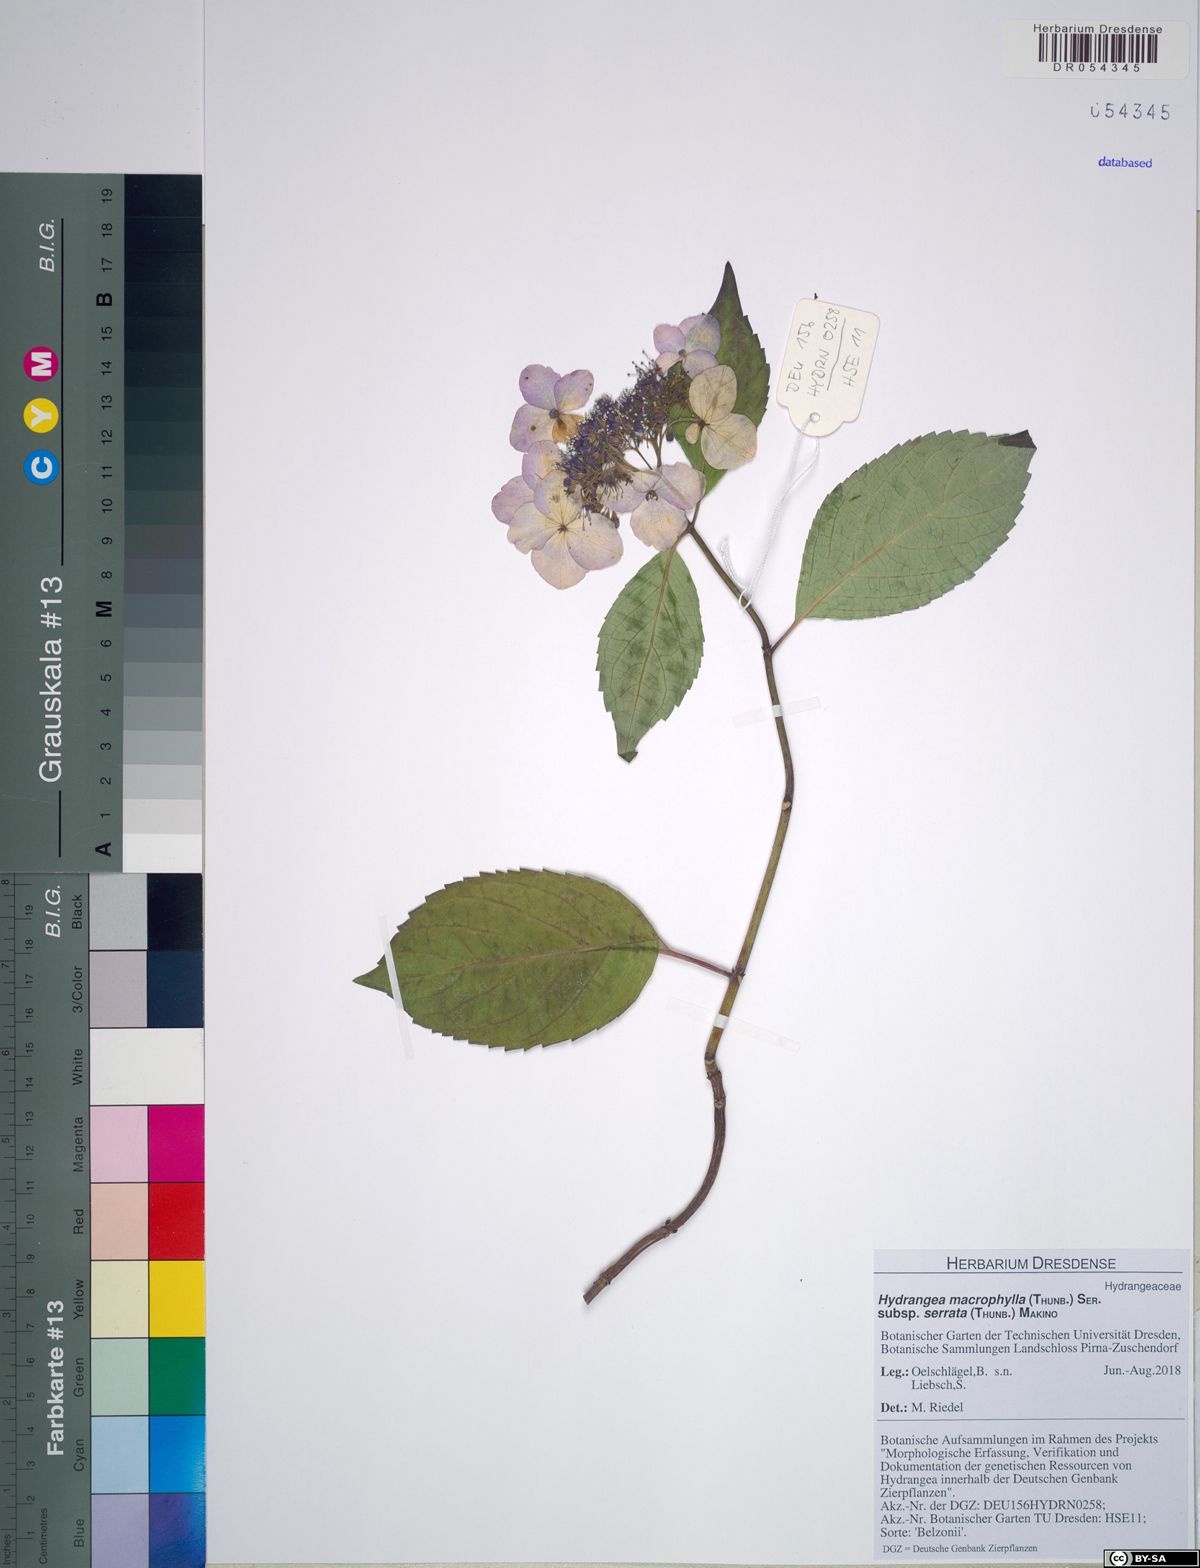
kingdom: Plantae
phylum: Tracheophyta
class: Magnoliopsida
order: Cornales
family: Hydrangeaceae
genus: Hydrangea
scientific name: Hydrangea serrata
